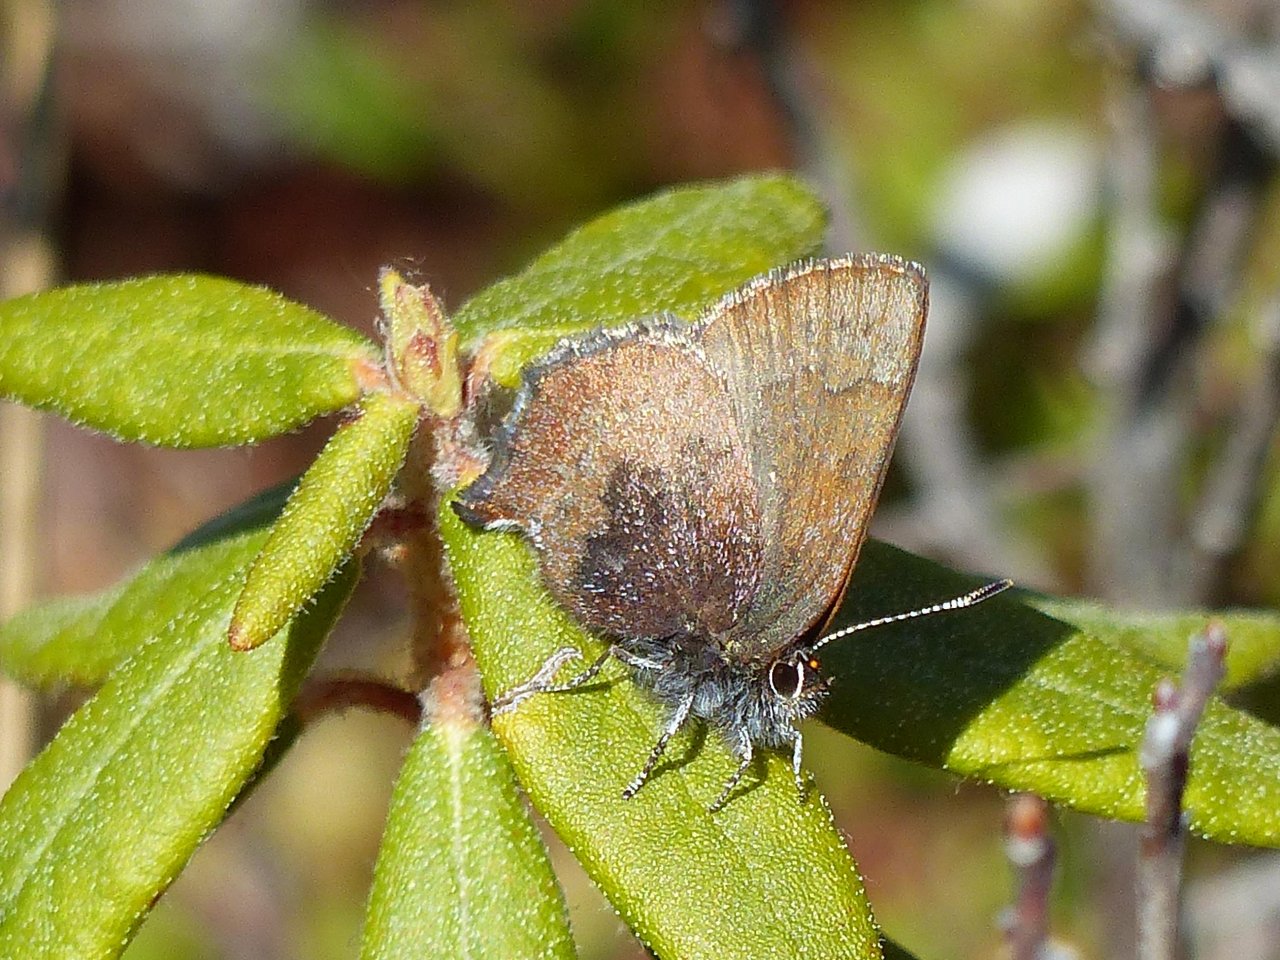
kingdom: Animalia
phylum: Arthropoda
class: Insecta
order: Lepidoptera
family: Lycaenidae
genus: Incisalia
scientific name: Incisalia irioides
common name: Brown Elfin
